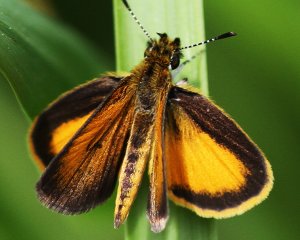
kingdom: Animalia
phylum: Arthropoda
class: Insecta
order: Lepidoptera
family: Hesperiidae
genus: Ancyloxypha
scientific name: Ancyloxypha numitor
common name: Least Skipper
